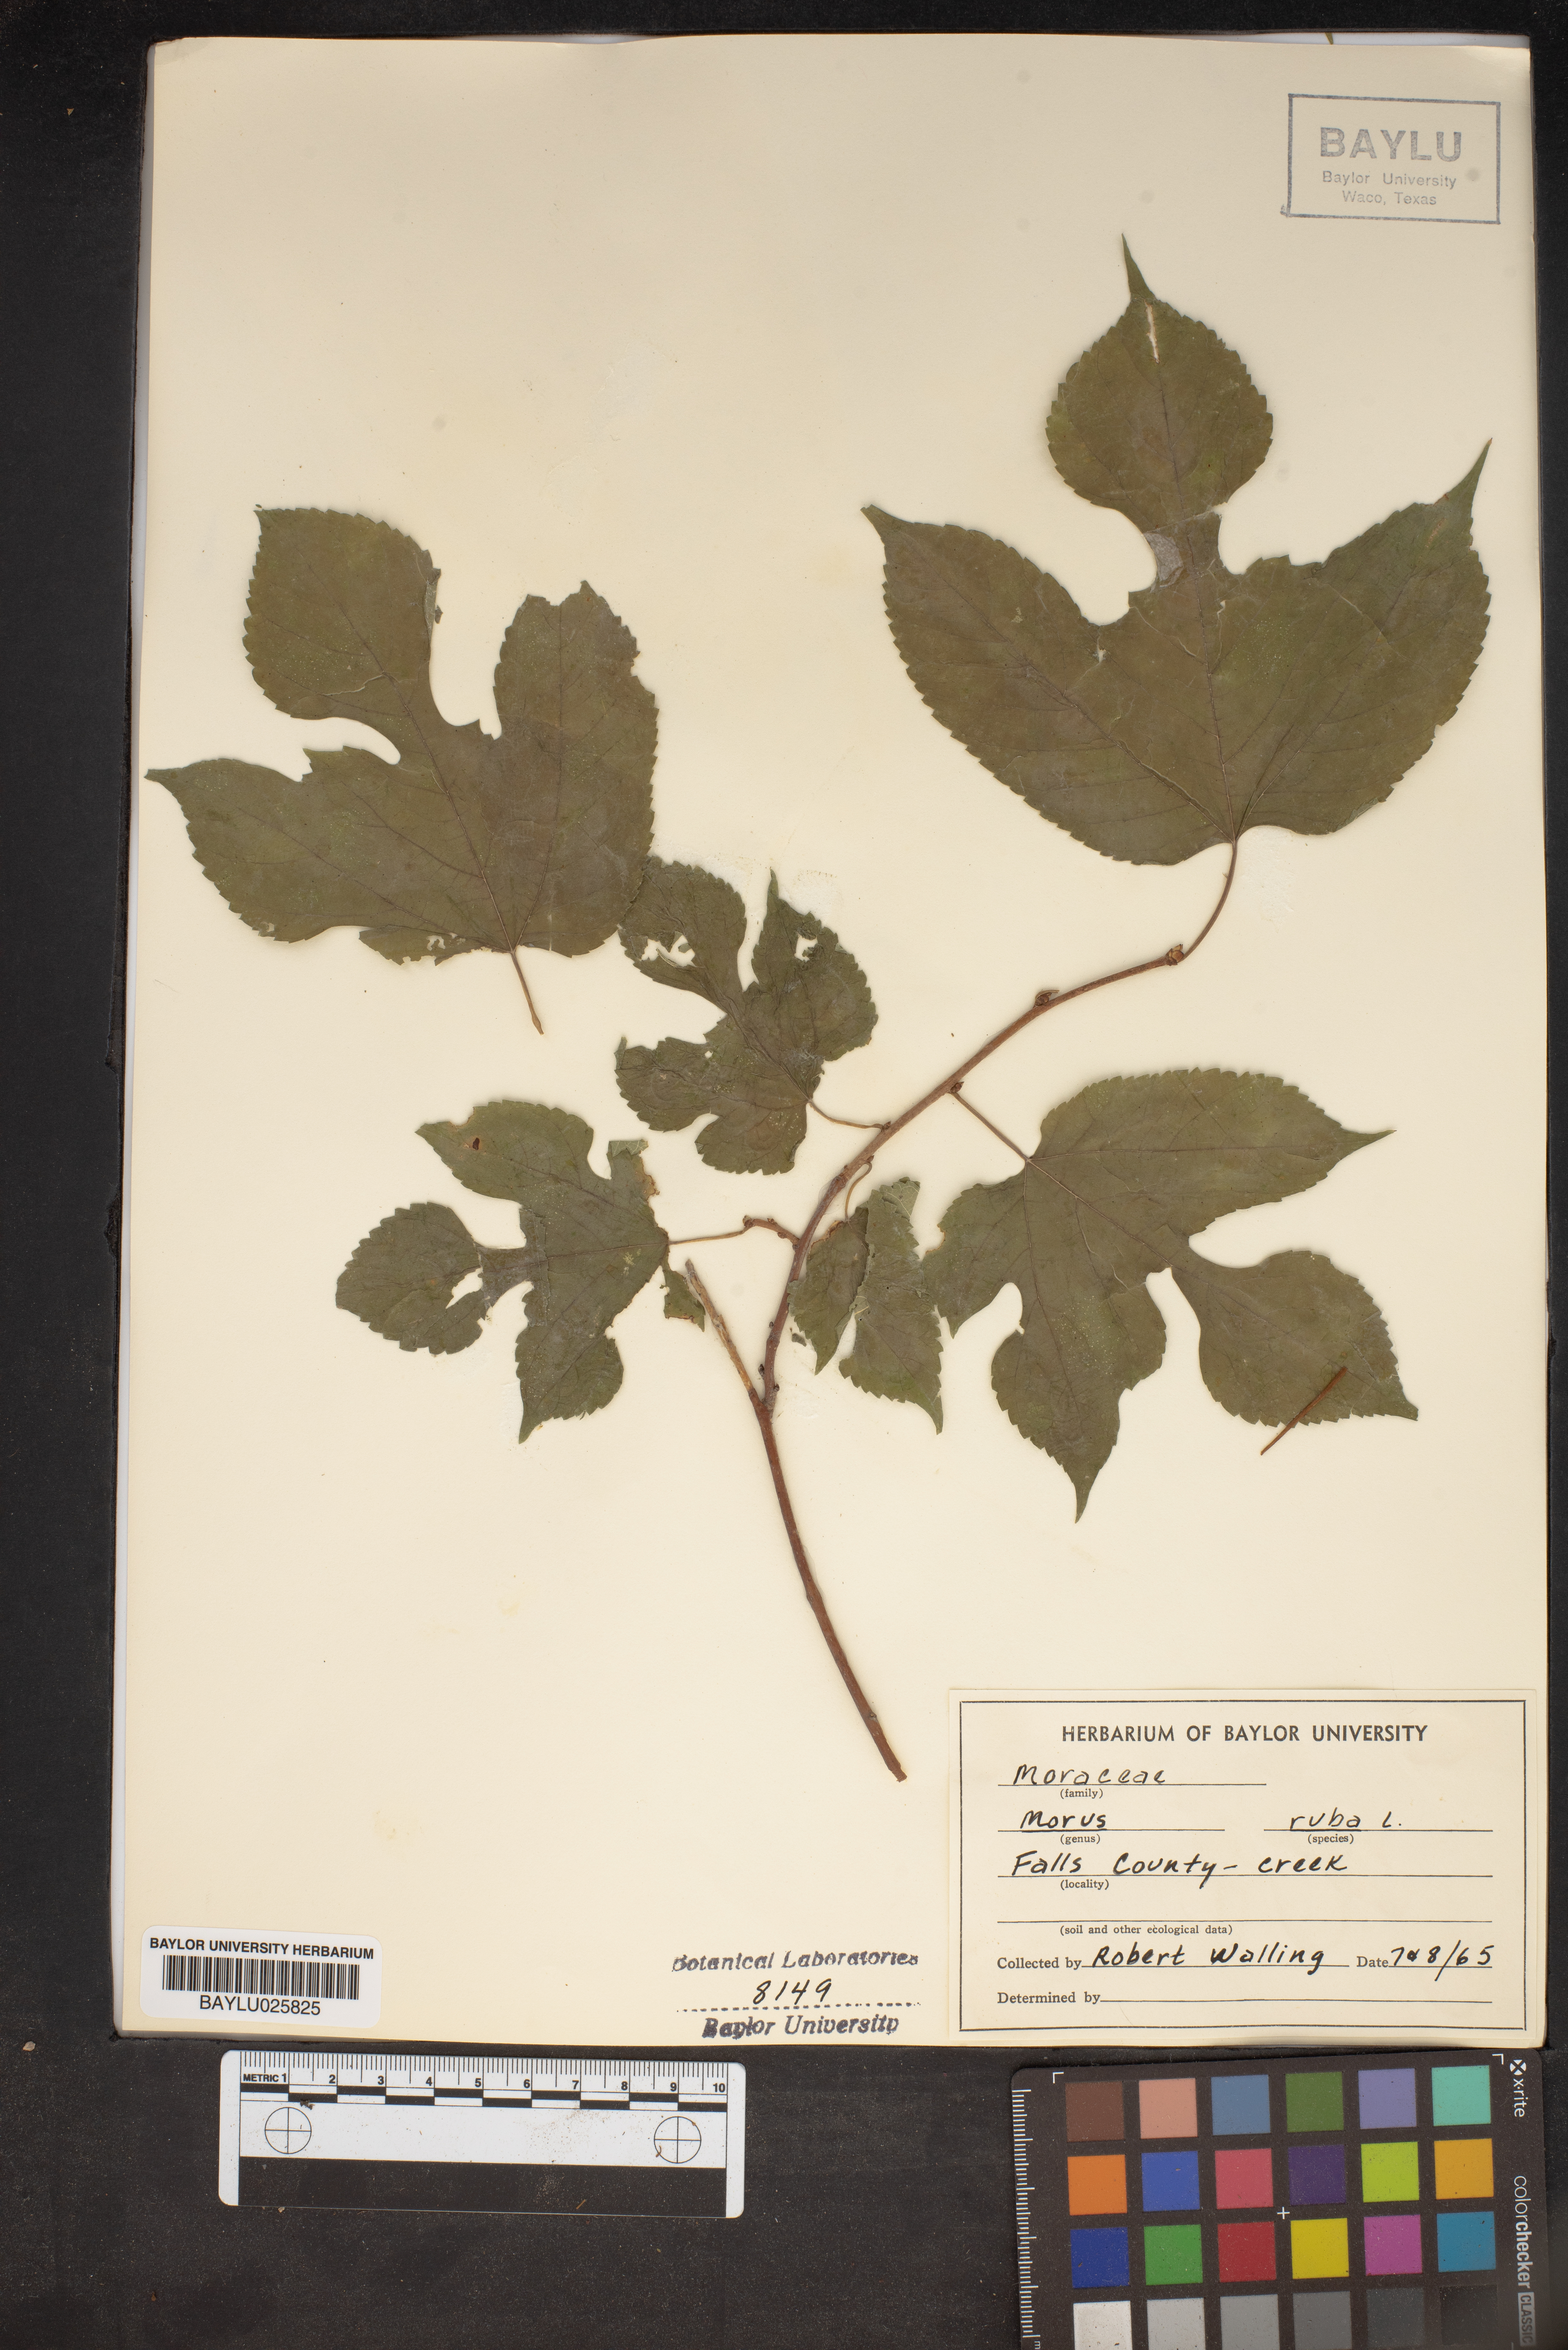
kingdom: Plantae
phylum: Tracheophyta
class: Magnoliopsida
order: Rosales
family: Moraceae
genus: Morus
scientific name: Morus rubra
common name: Red mulberry
